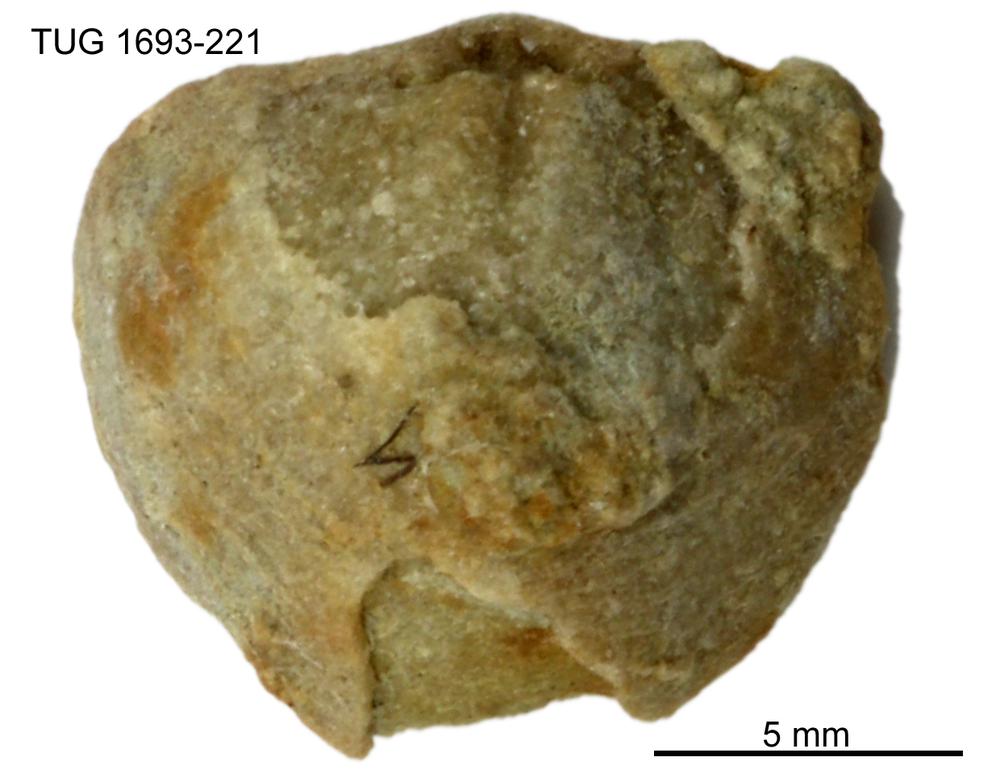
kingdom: Animalia
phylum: Brachiopoda
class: Rhynchonellata
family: Atrypidae
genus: Atrypa
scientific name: Atrypa reticularis
